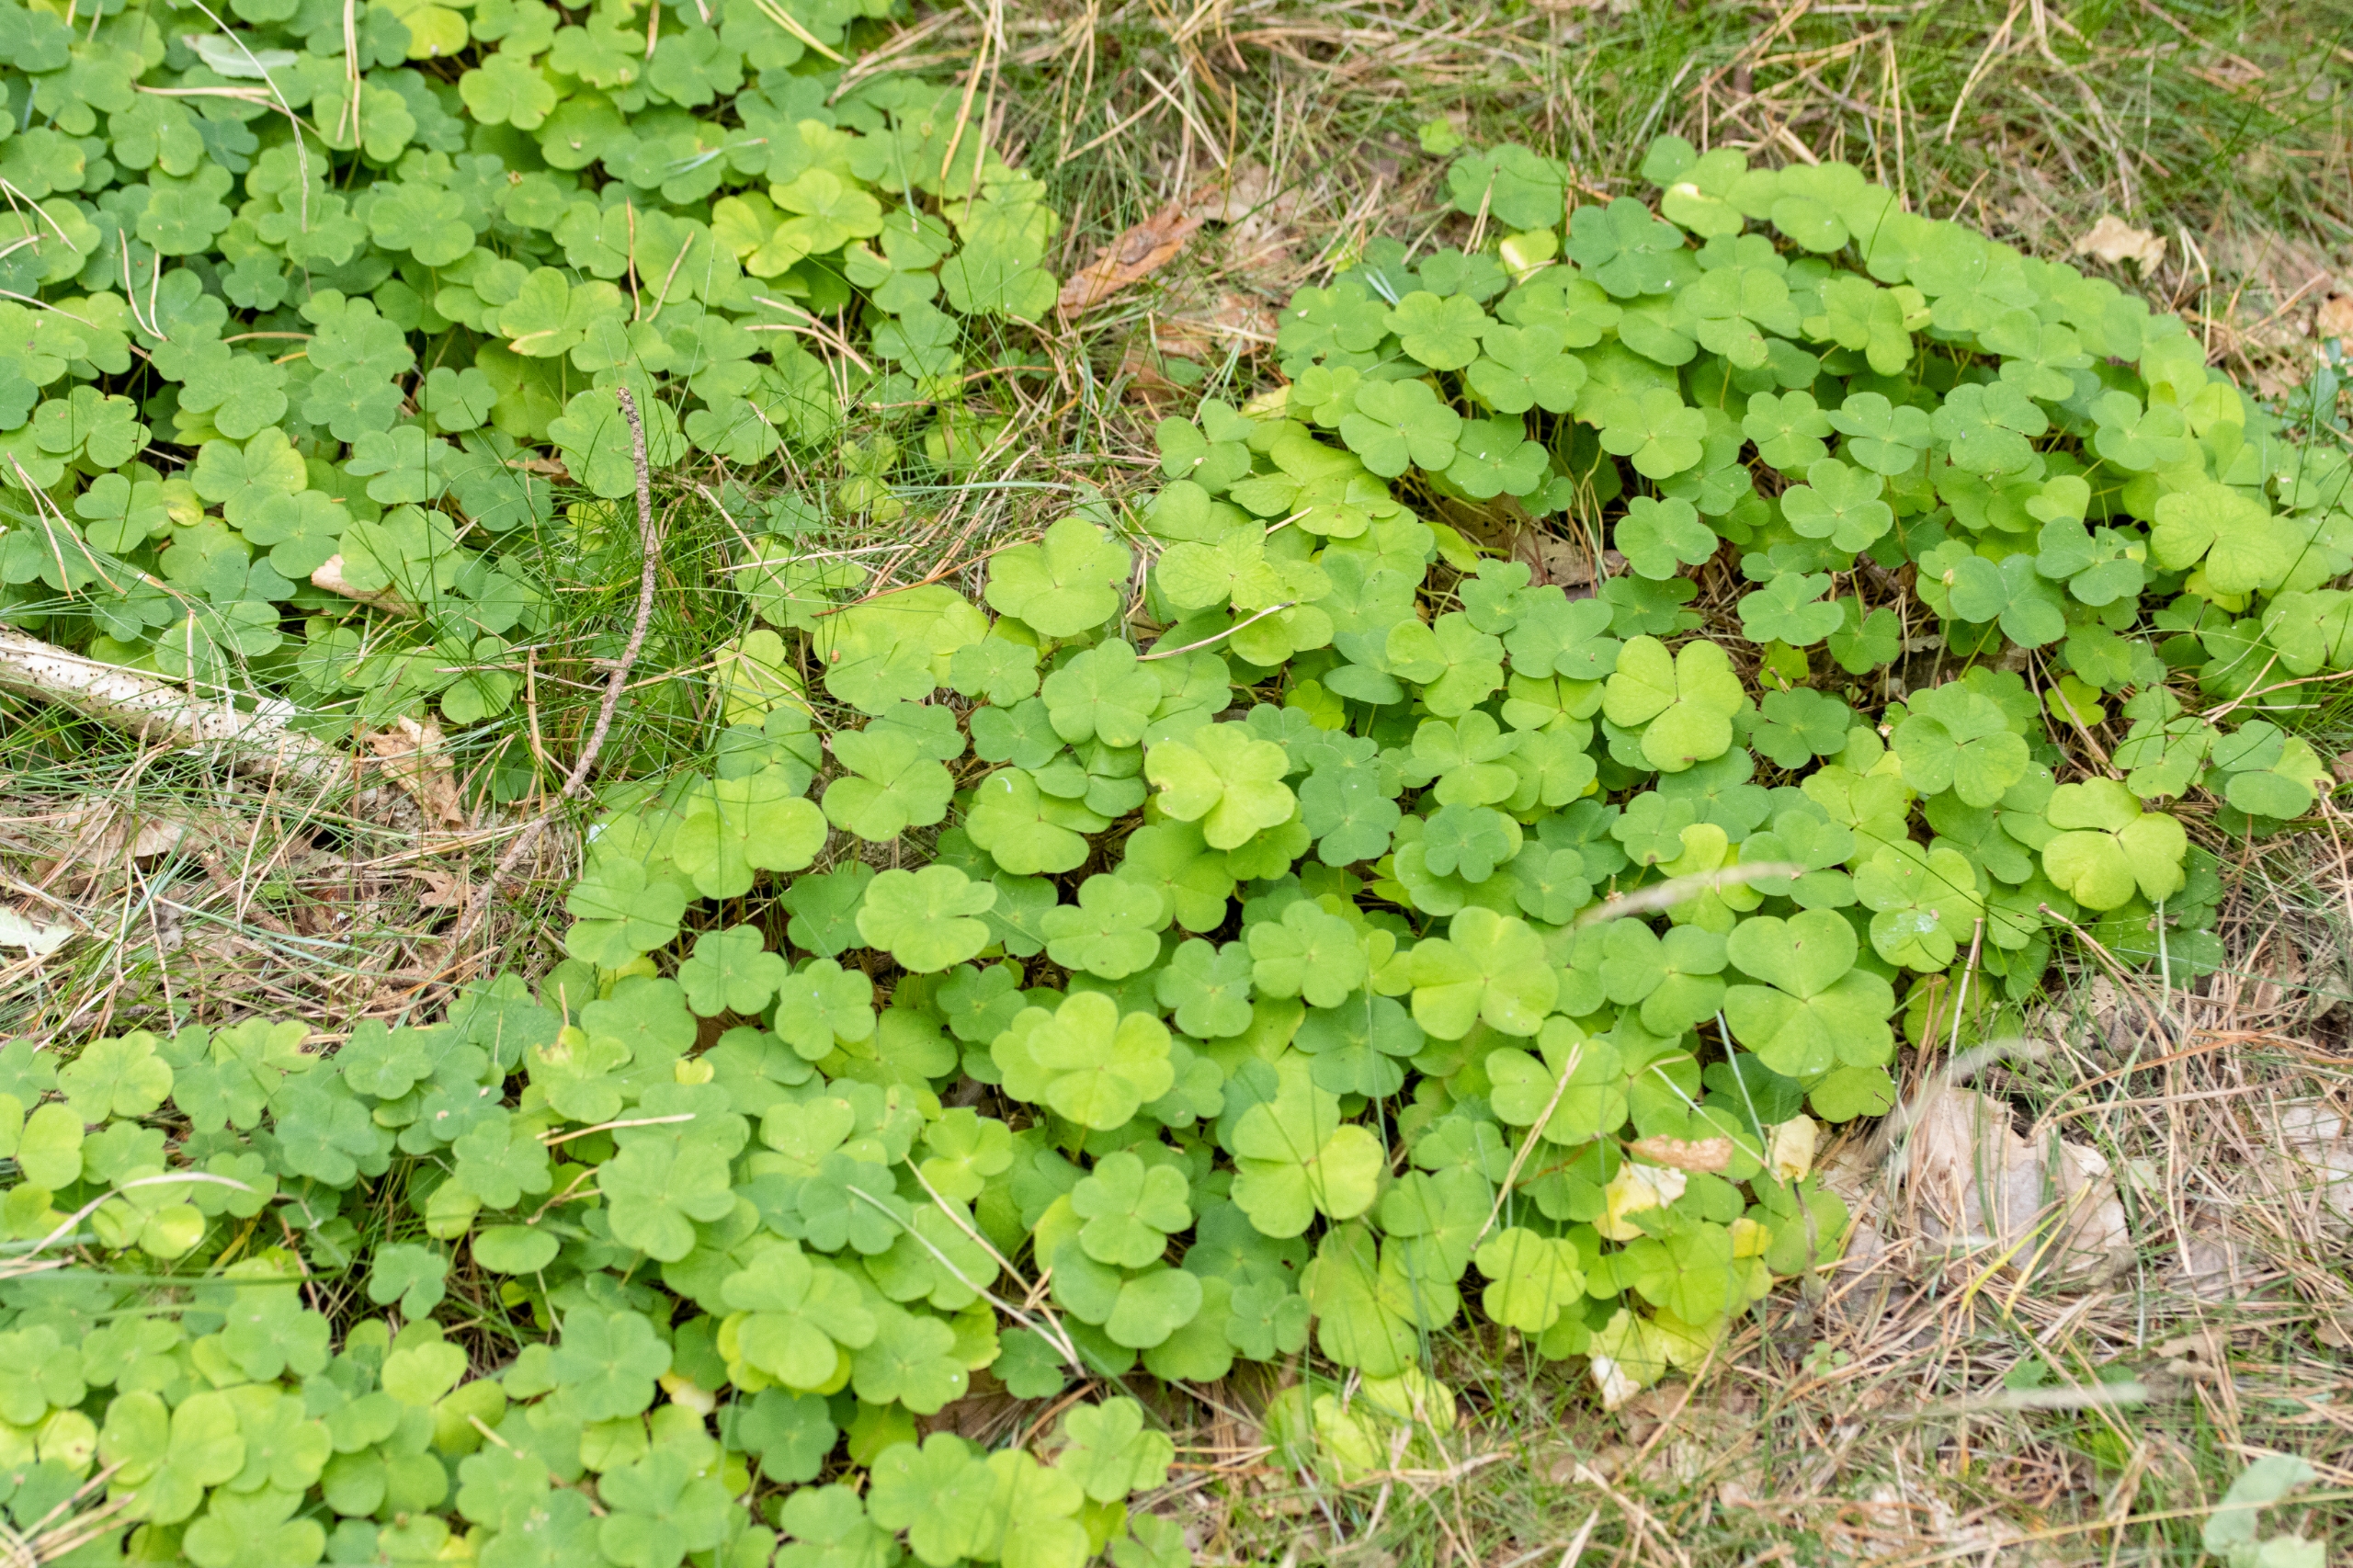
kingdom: Plantae
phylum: Tracheophyta
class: Magnoliopsida
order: Oxalidales
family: Oxalidaceae
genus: Oxalis
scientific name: Oxalis acetosella
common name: Skovsyre
